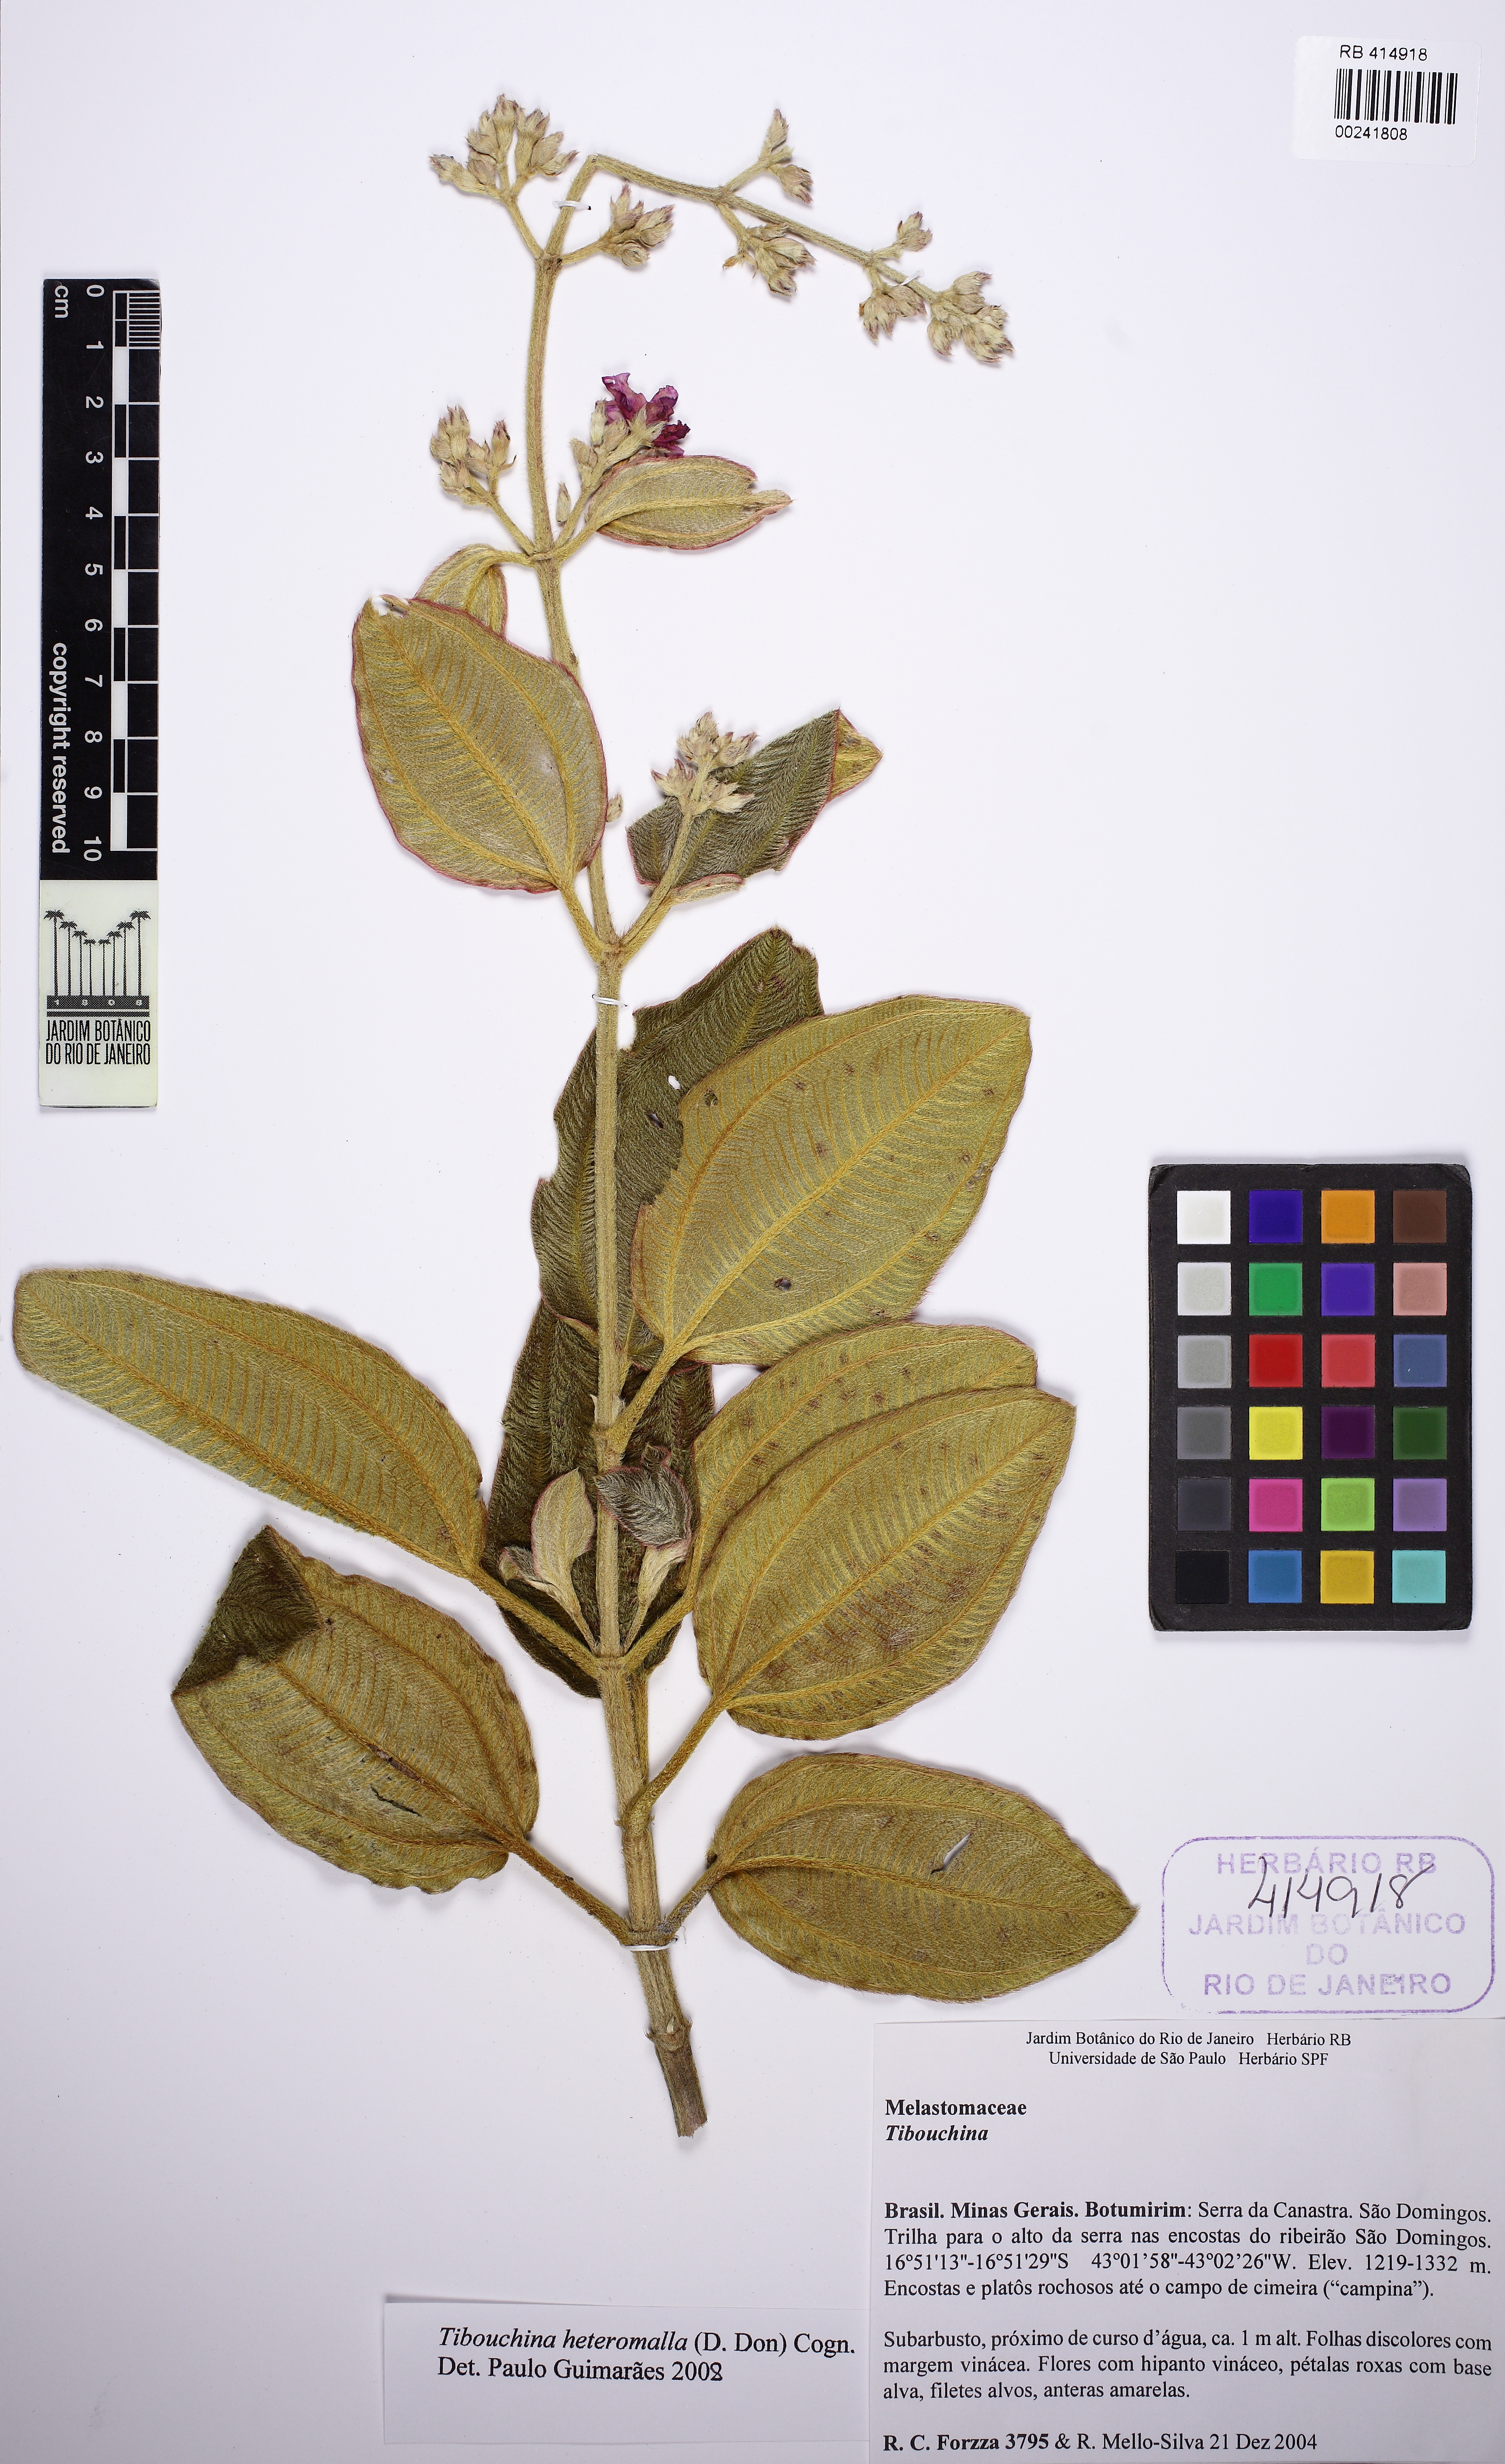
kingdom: Plantae
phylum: Tracheophyta
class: Magnoliopsida
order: Myrtales
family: Melastomataceae
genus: Pleroma
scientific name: Pleroma heteromallum
